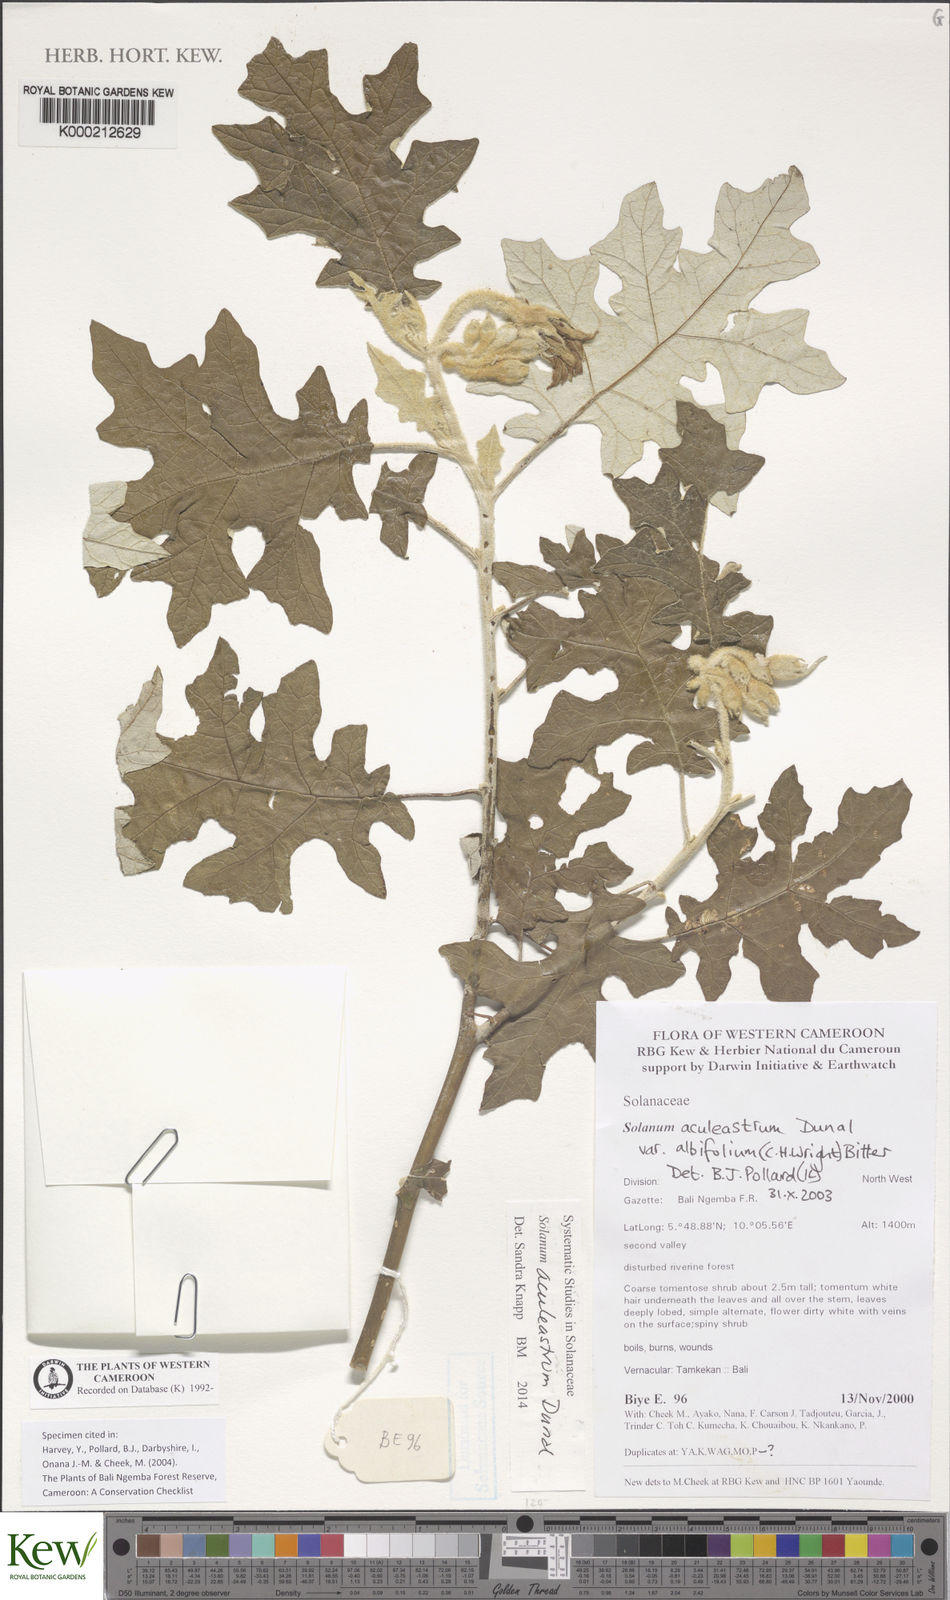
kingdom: Plantae
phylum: Tracheophyta
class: Magnoliopsida
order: Solanales
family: Solanaceae
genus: Solanum
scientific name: Solanum aculeastrum
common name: Goat bitter-apple
